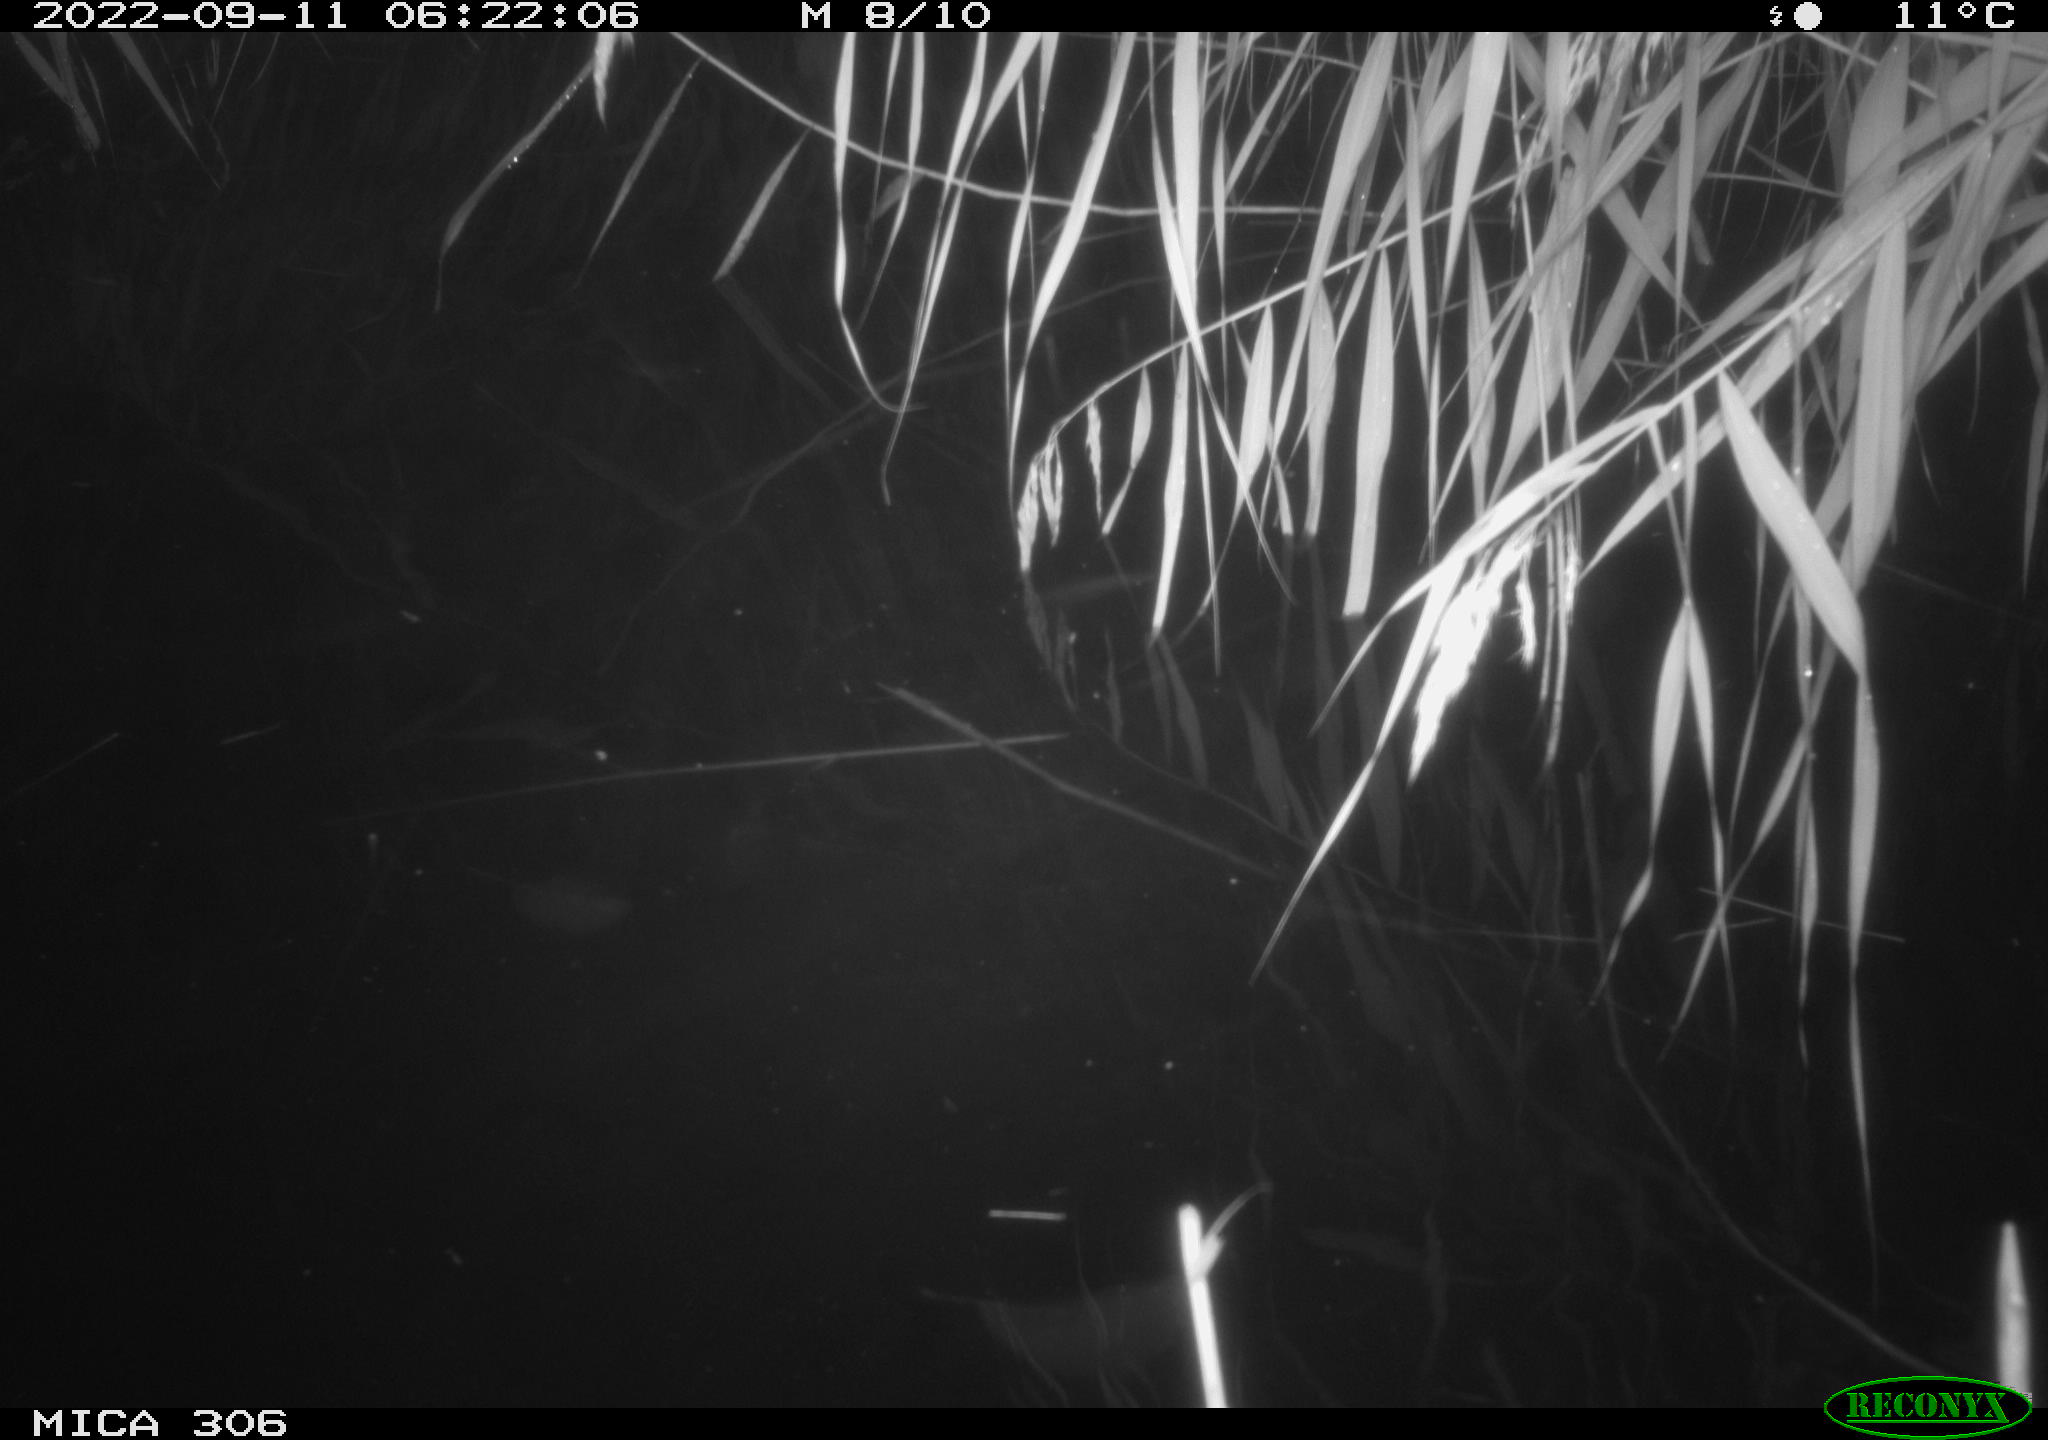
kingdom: Animalia
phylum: Chordata
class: Mammalia
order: Rodentia
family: Muridae
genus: Rattus
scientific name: Rattus norvegicus
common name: Brown rat
